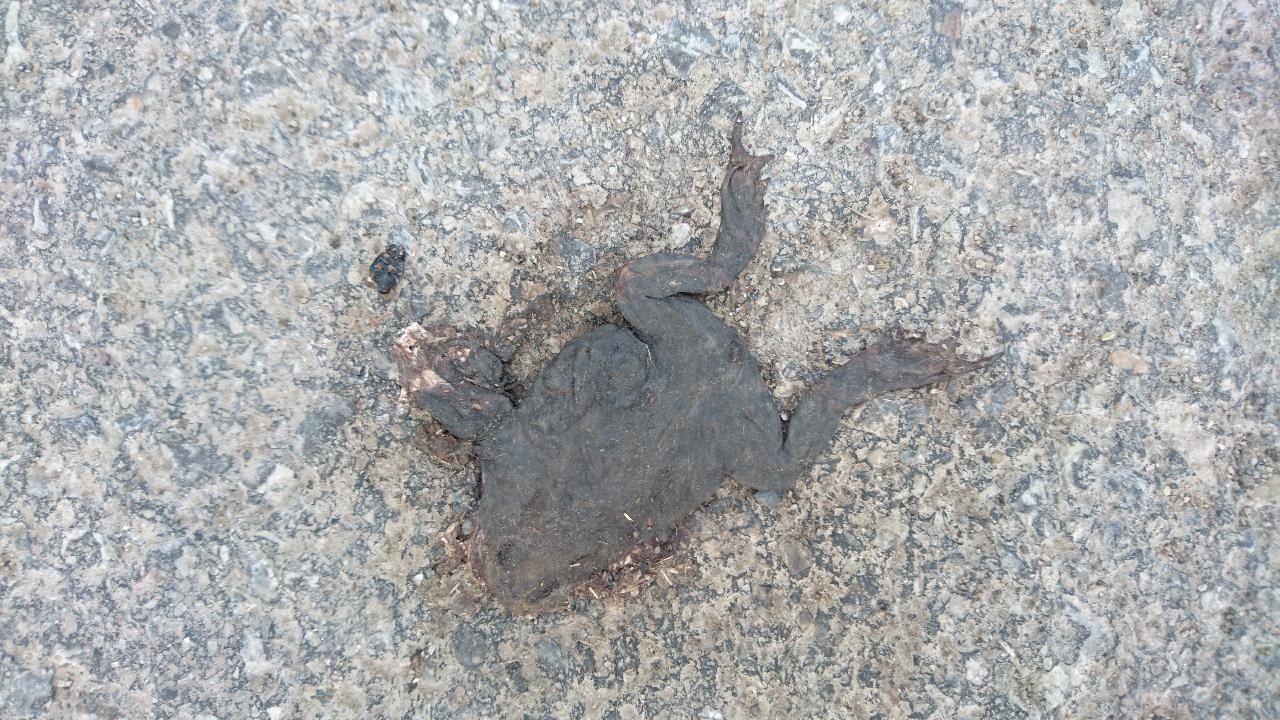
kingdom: Animalia
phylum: Chordata
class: Amphibia
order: Anura
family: Bufonidae
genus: Bufo
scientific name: Bufo bufo
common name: Common toad
